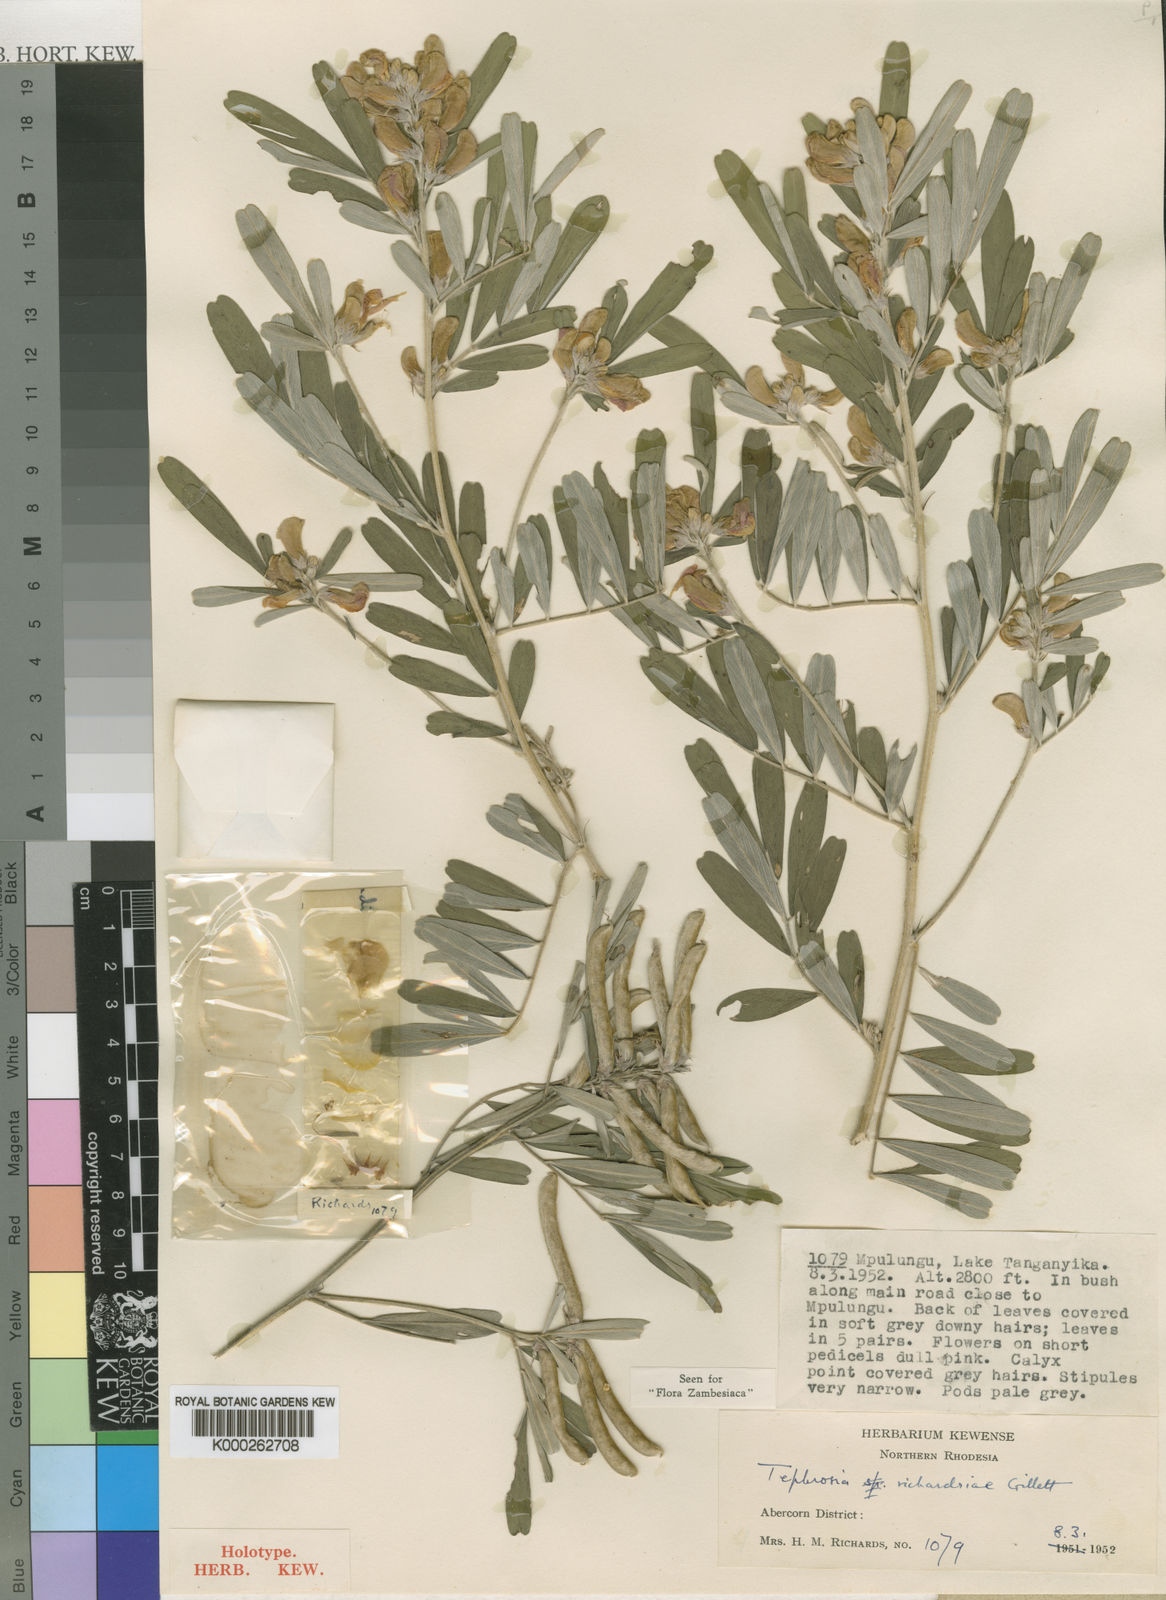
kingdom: Plantae
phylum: Tracheophyta
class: Magnoliopsida
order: Fabales
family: Fabaceae
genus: Tephrosia
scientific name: Tephrosia richardsiae
